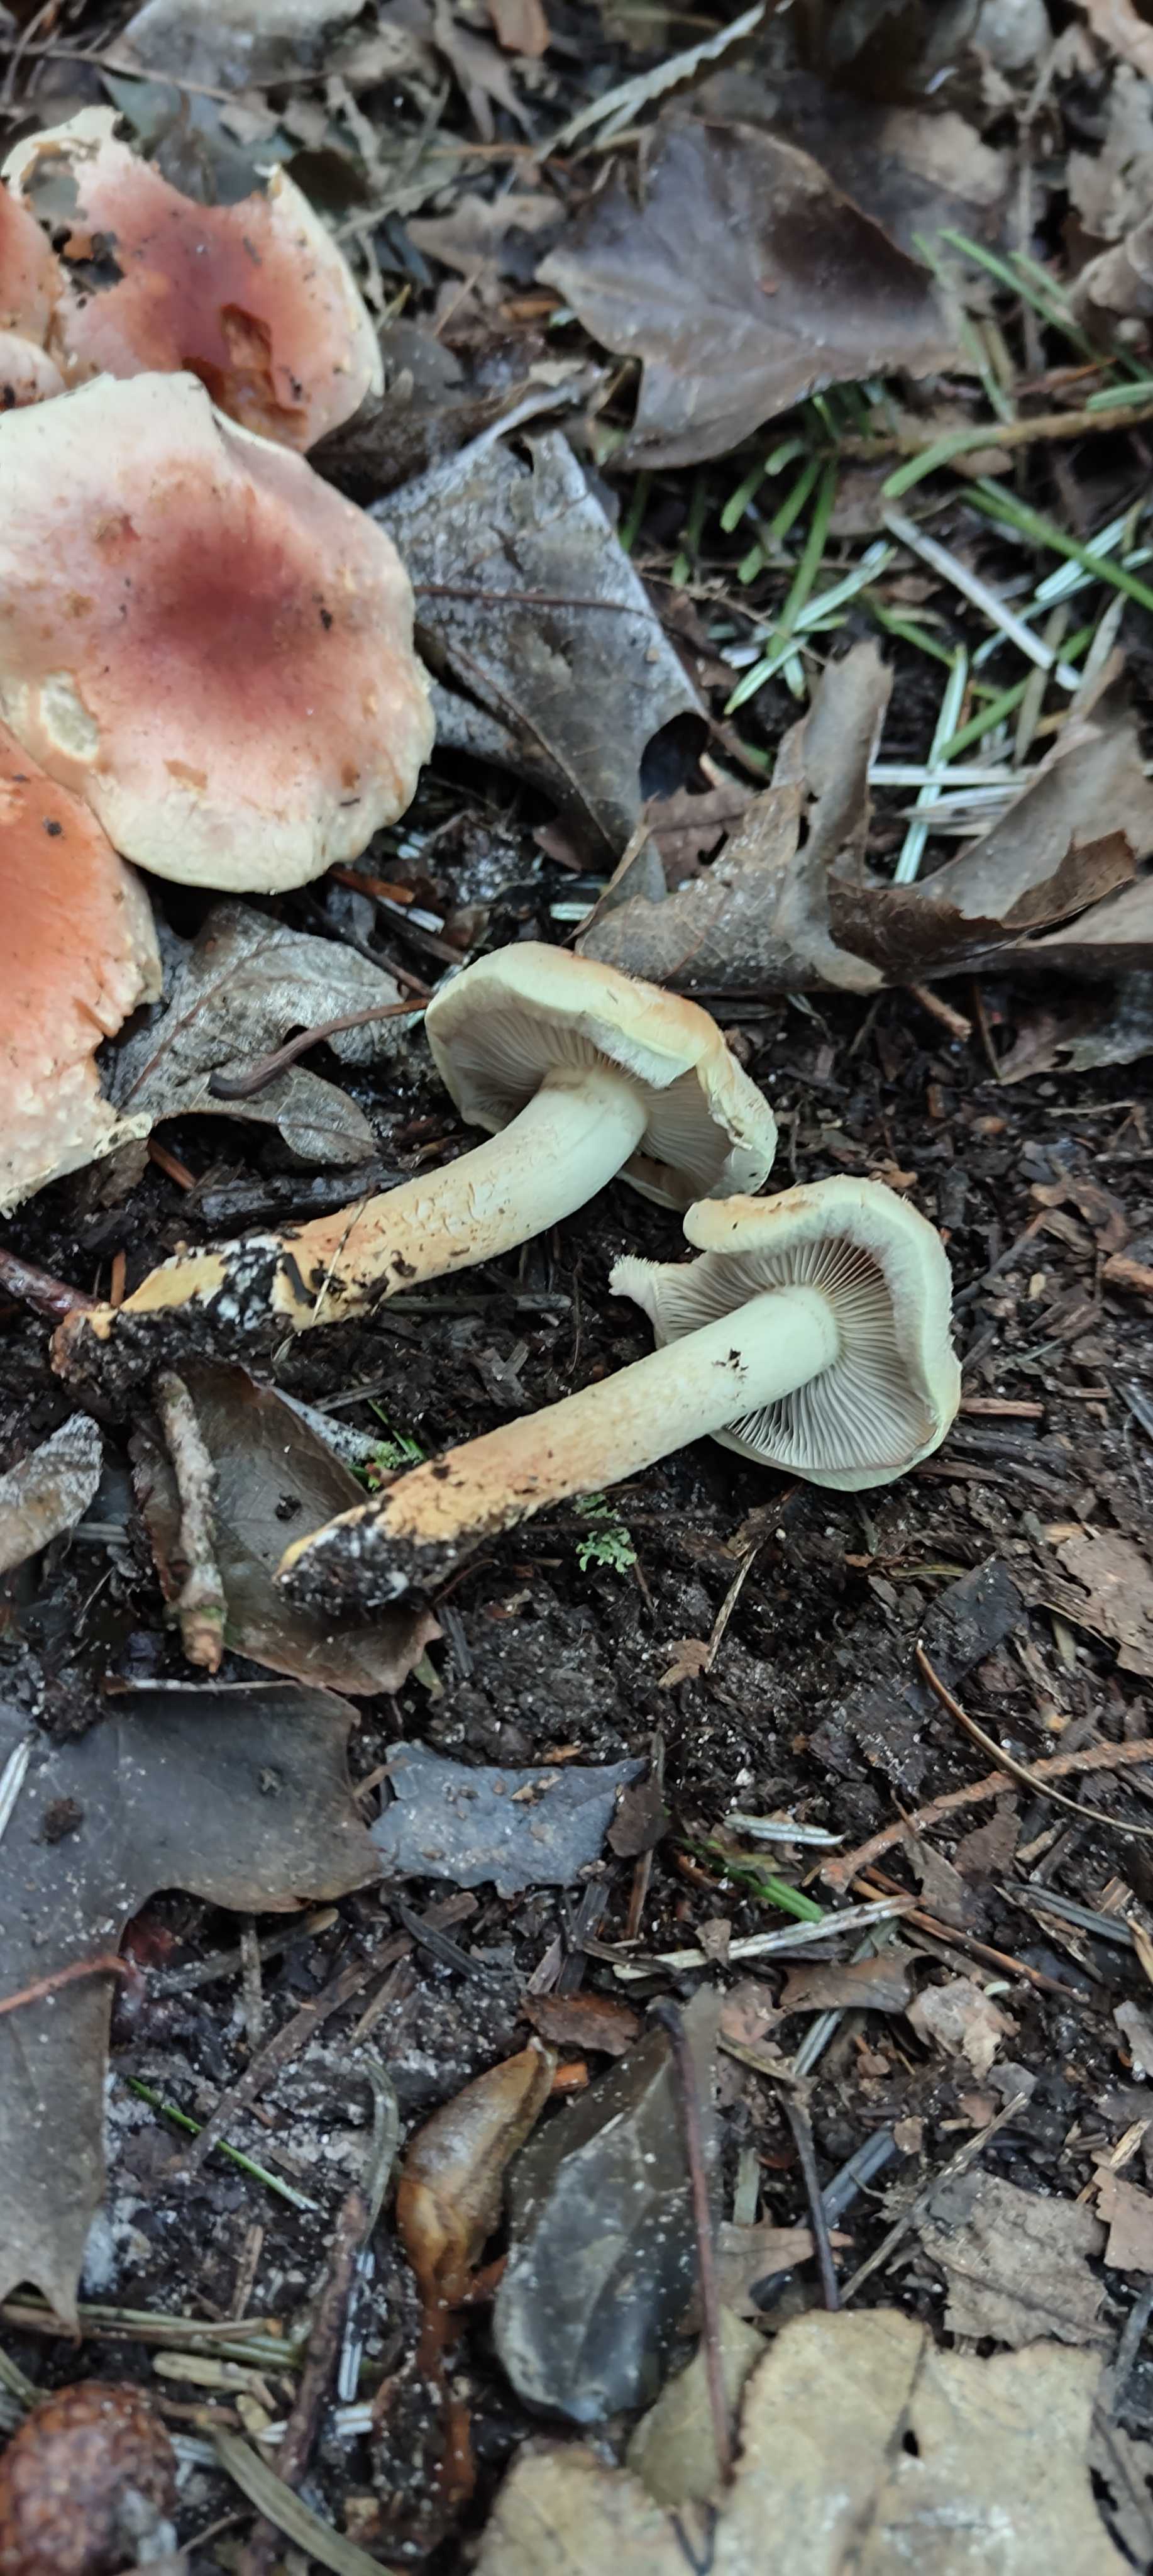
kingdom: Fungi
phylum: Basidiomycota
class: Agaricomycetes
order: Agaricales
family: Strophariaceae
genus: Hypholoma
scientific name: Hypholoma lateritium
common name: teglrød svovlhat
